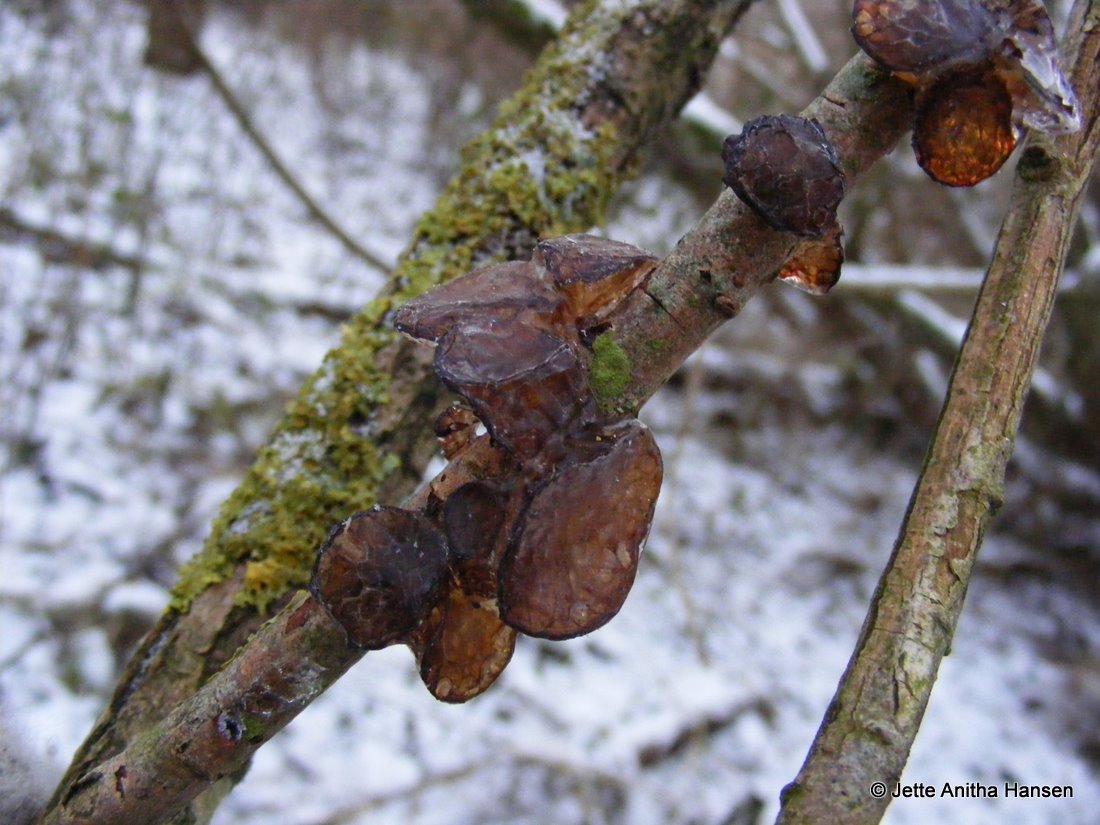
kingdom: Fungi
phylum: Basidiomycota
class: Agaricomycetes
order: Auriculariales
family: Auriculariaceae
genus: Exidia
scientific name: Exidia recisa
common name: pile-bævretop
